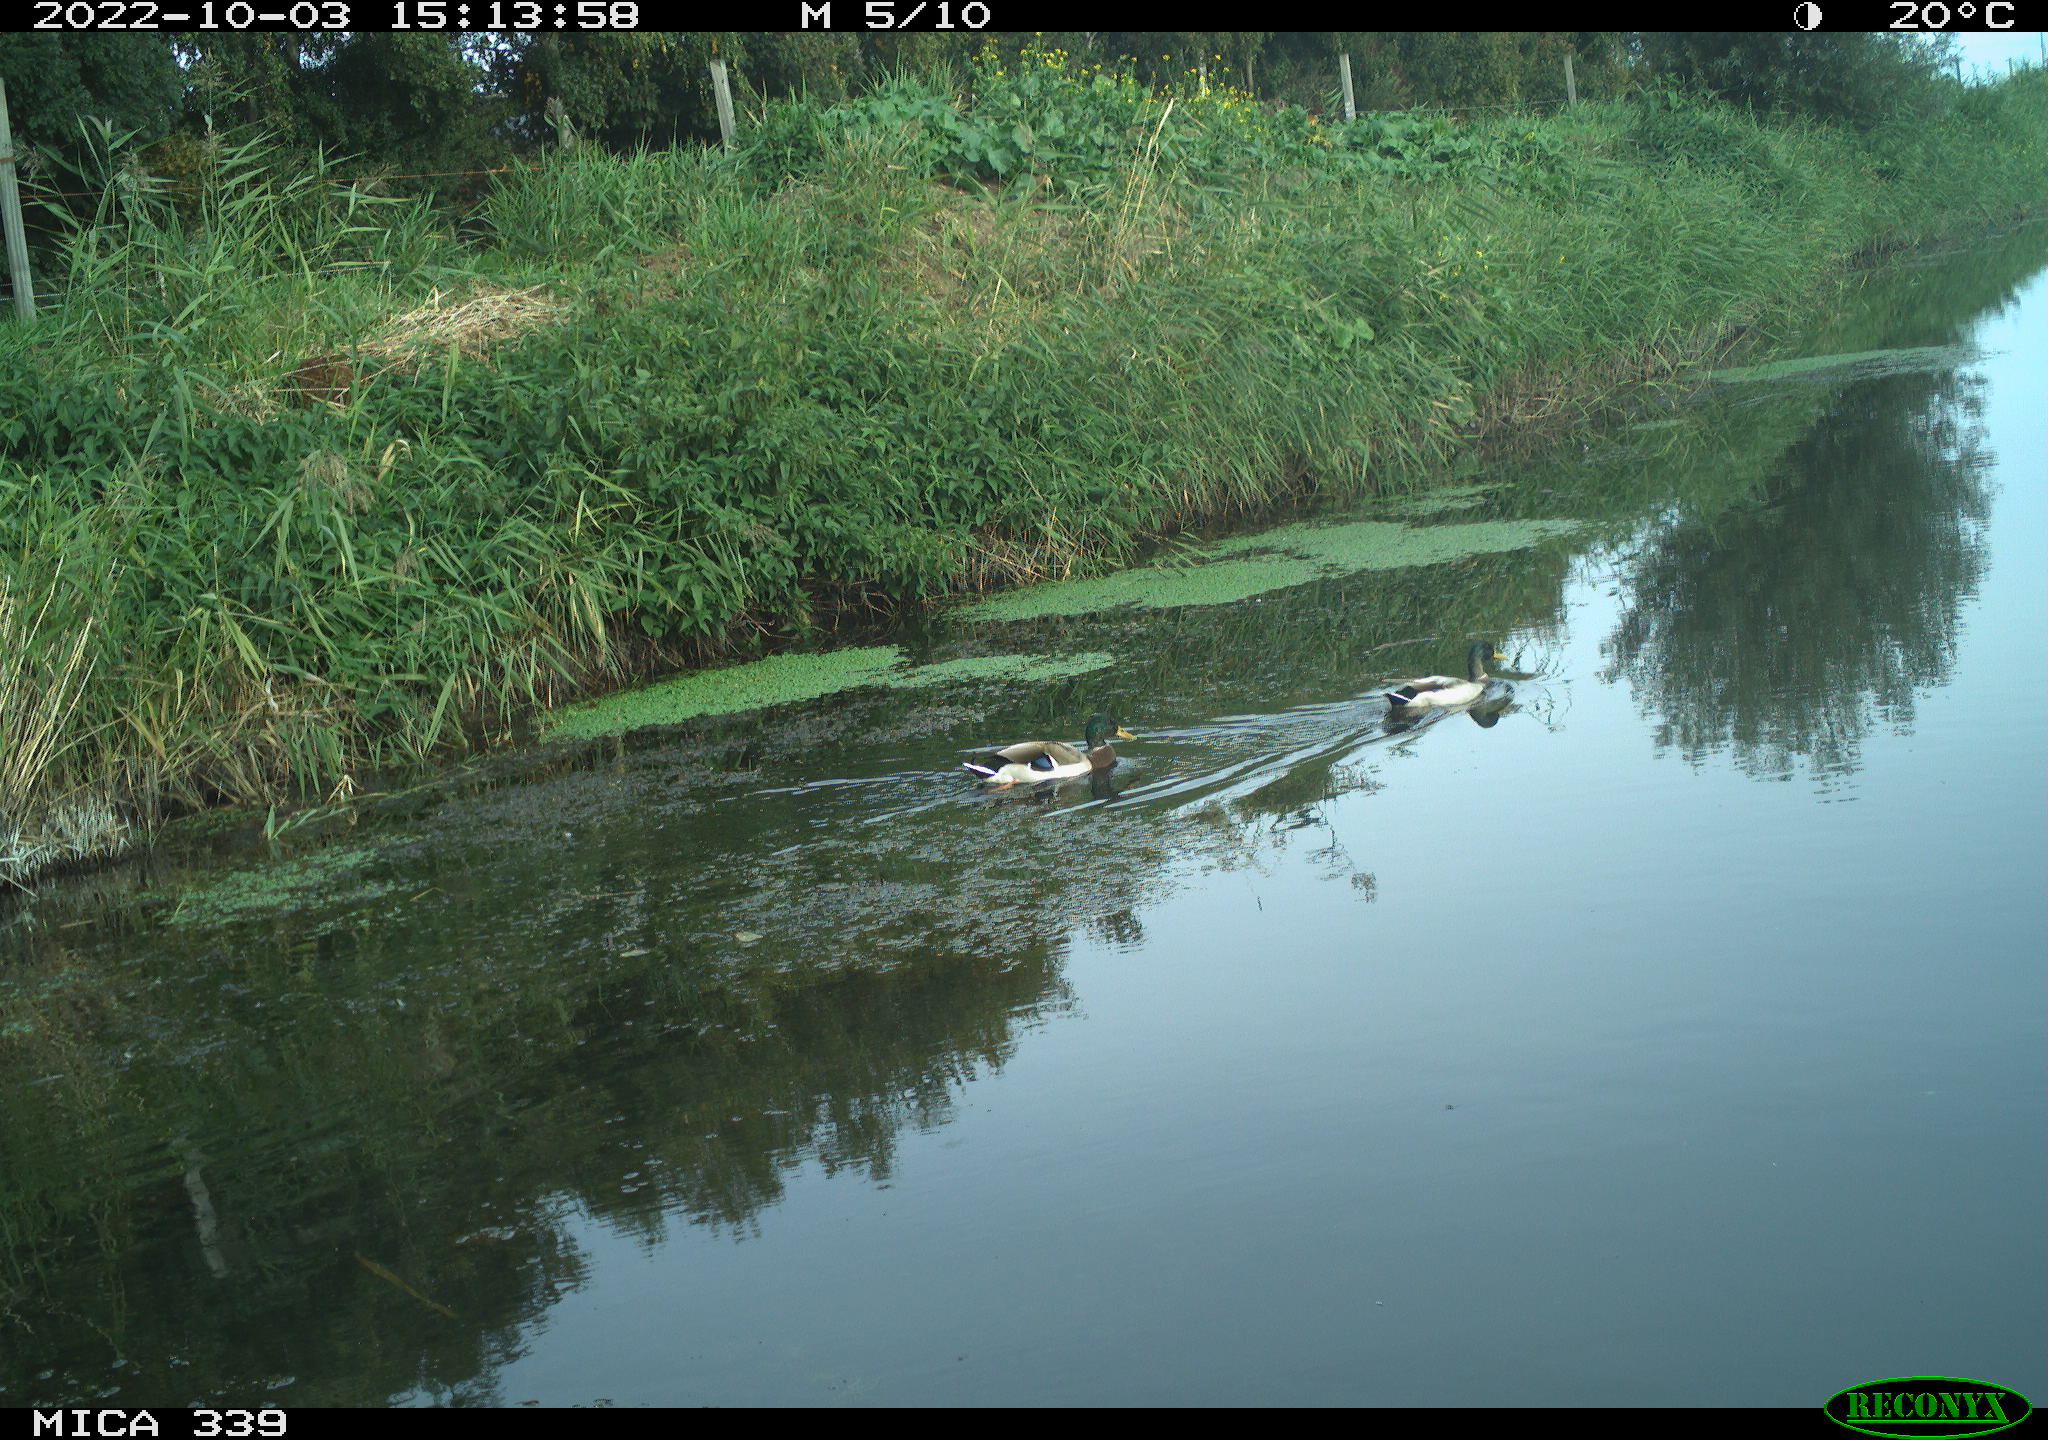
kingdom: Animalia
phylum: Chordata
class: Aves
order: Anseriformes
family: Anatidae
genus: Anas
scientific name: Anas platyrhynchos
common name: Mallard
